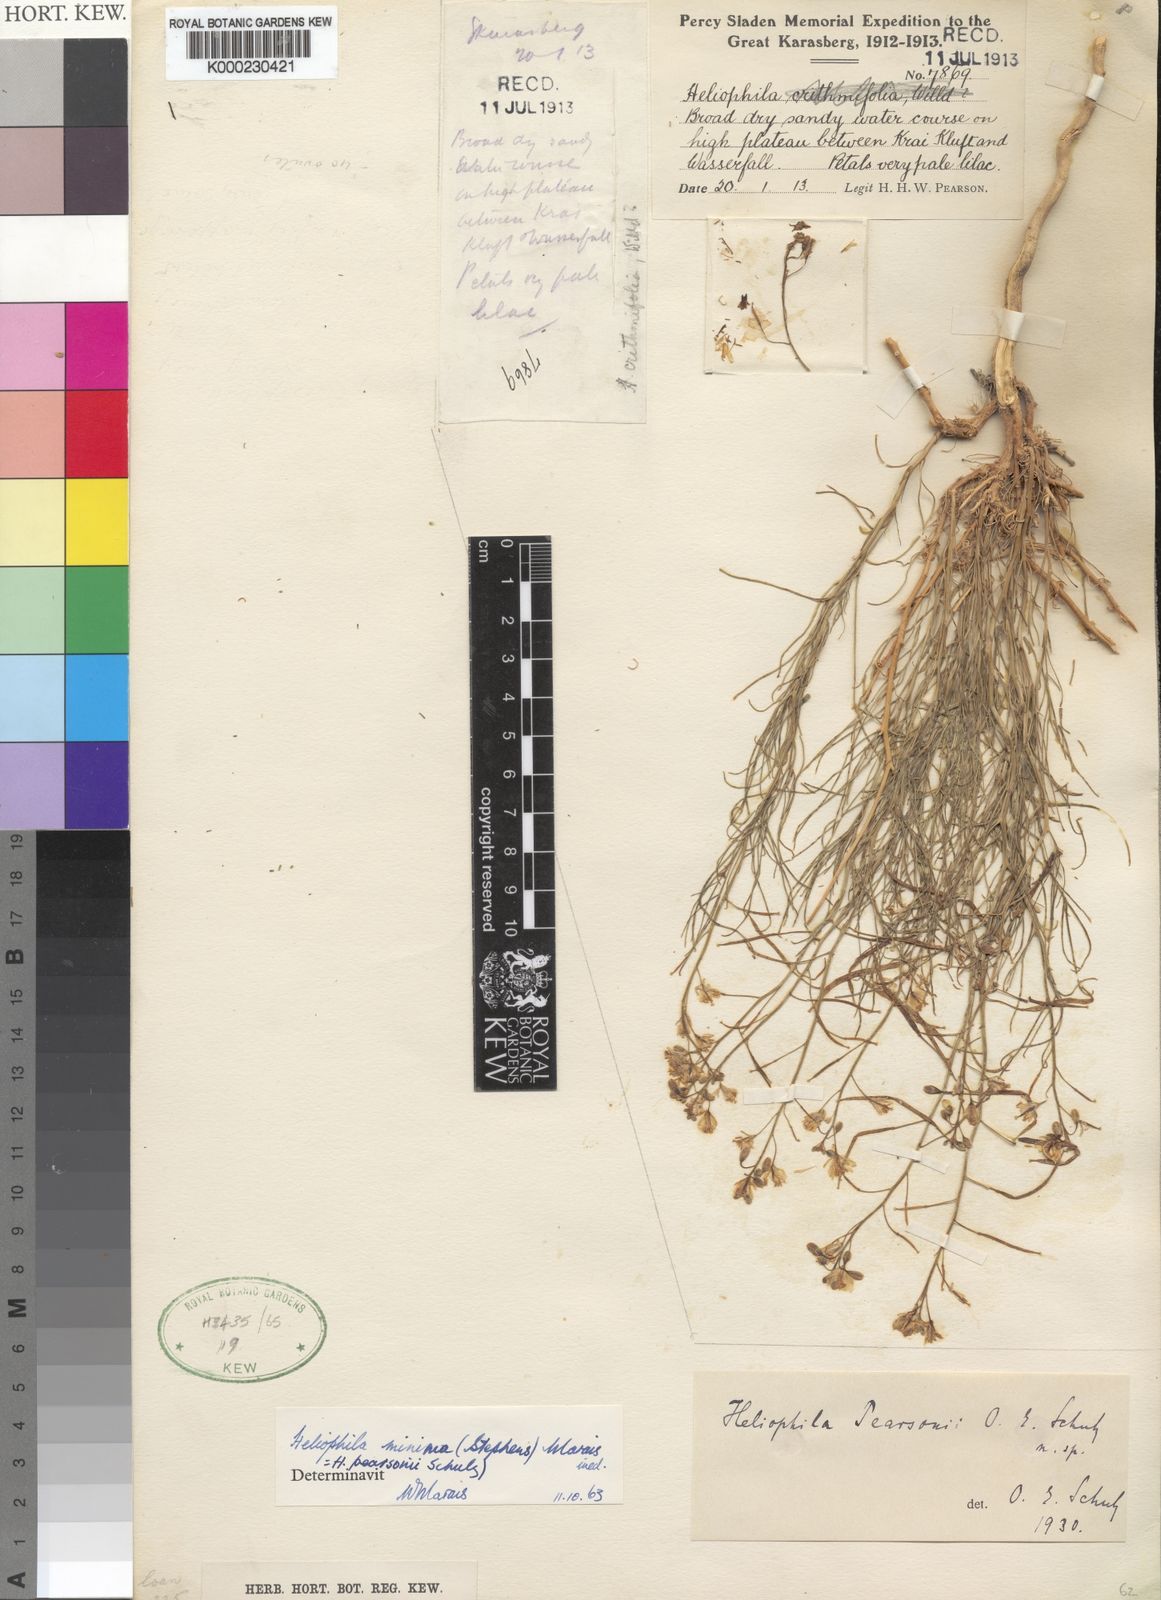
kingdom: Plantae
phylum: Tracheophyta
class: Magnoliopsida
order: Brassicales
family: Brassicaceae
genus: Heliophila
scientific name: Heliophila minima
